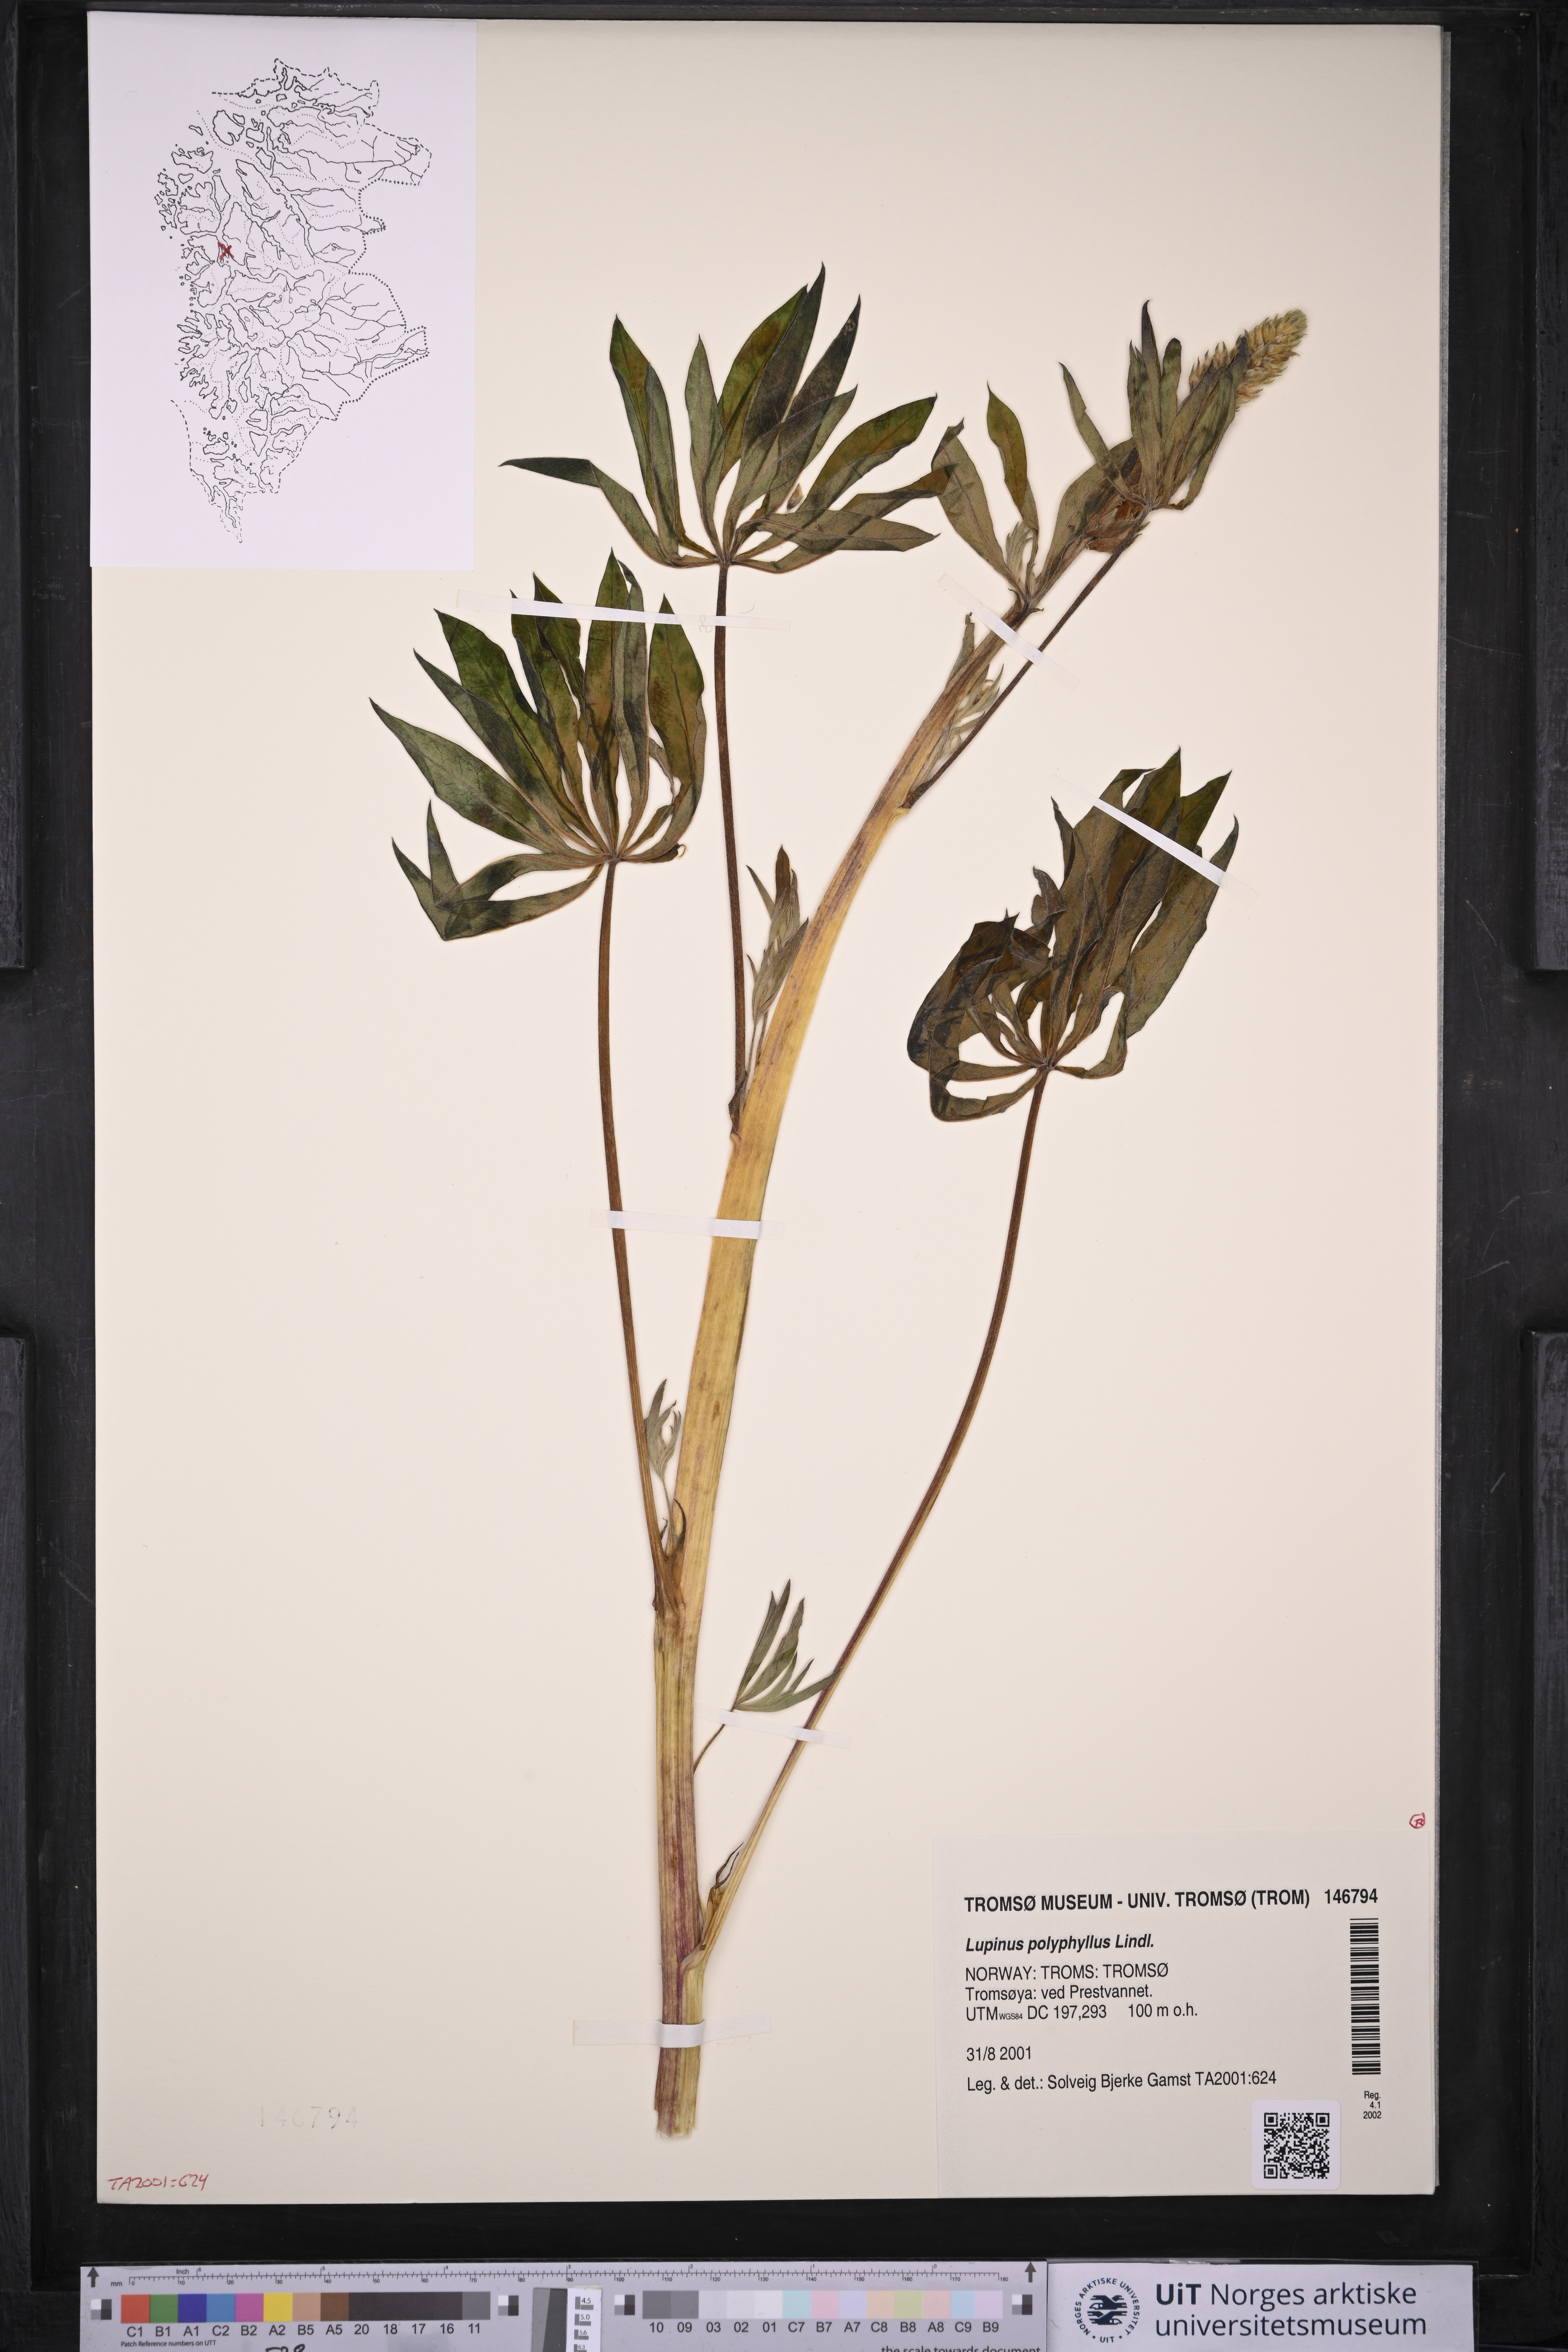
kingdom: Plantae
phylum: Tracheophyta
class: Magnoliopsida
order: Fabales
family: Fabaceae
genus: Lupinus
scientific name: Lupinus polyphyllus
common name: Garden lupin
